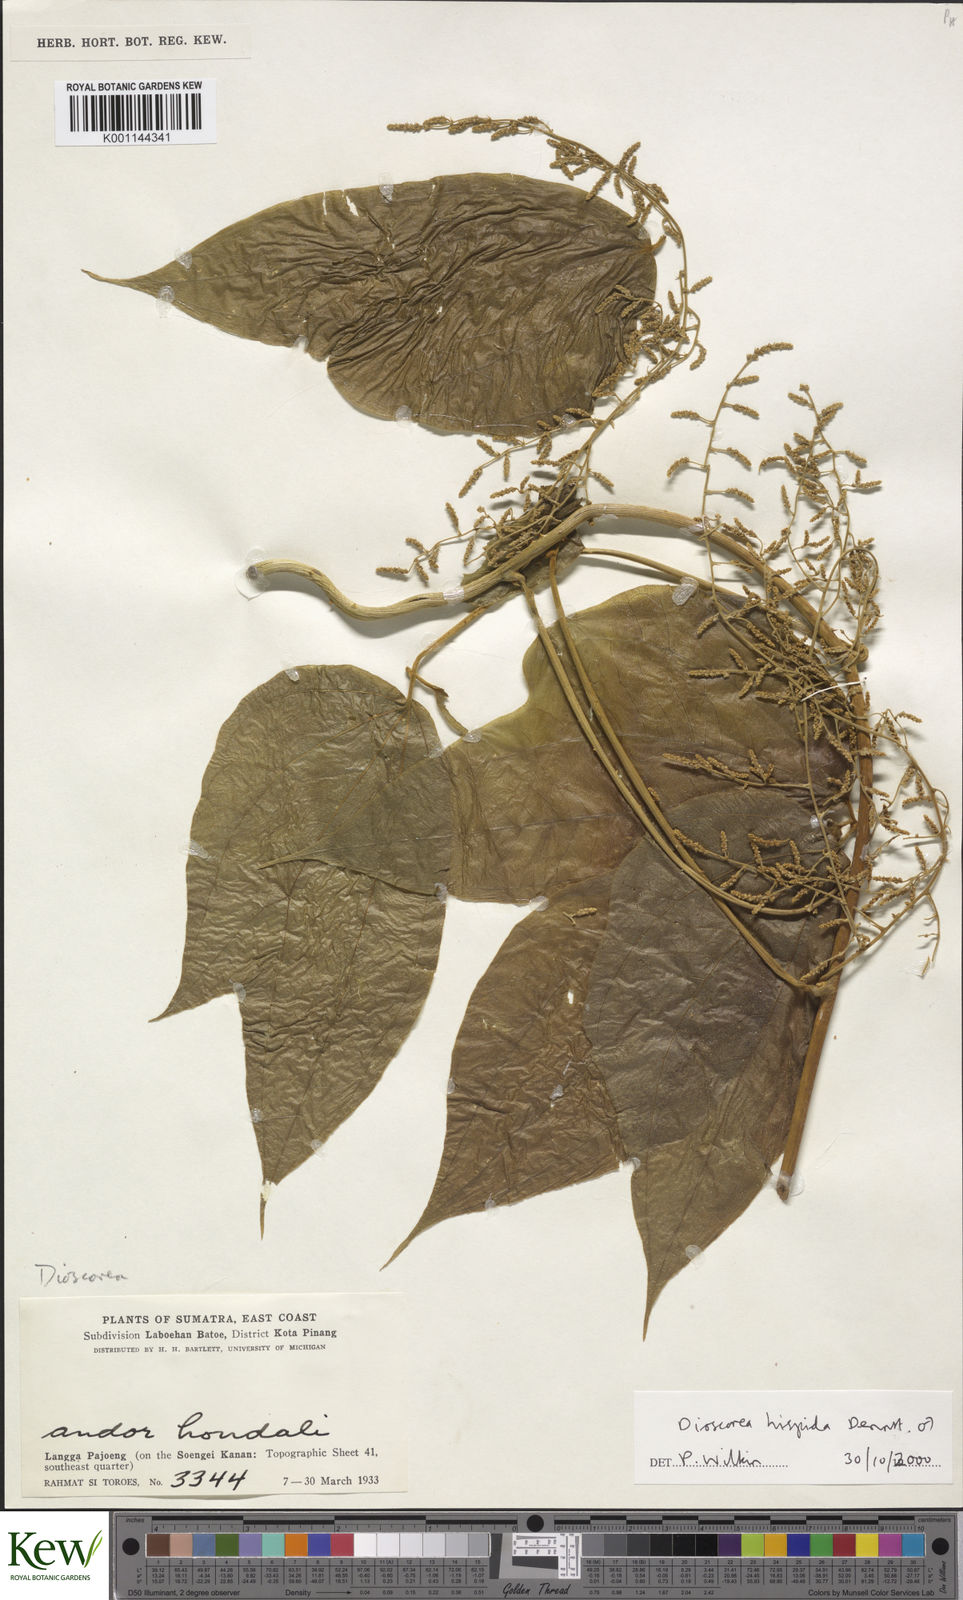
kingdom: Plantae
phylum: Tracheophyta
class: Liliopsida
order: Dioscoreales
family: Dioscoreaceae
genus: Dioscorea
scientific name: Dioscorea hispida
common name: Asiatic bitter yam
